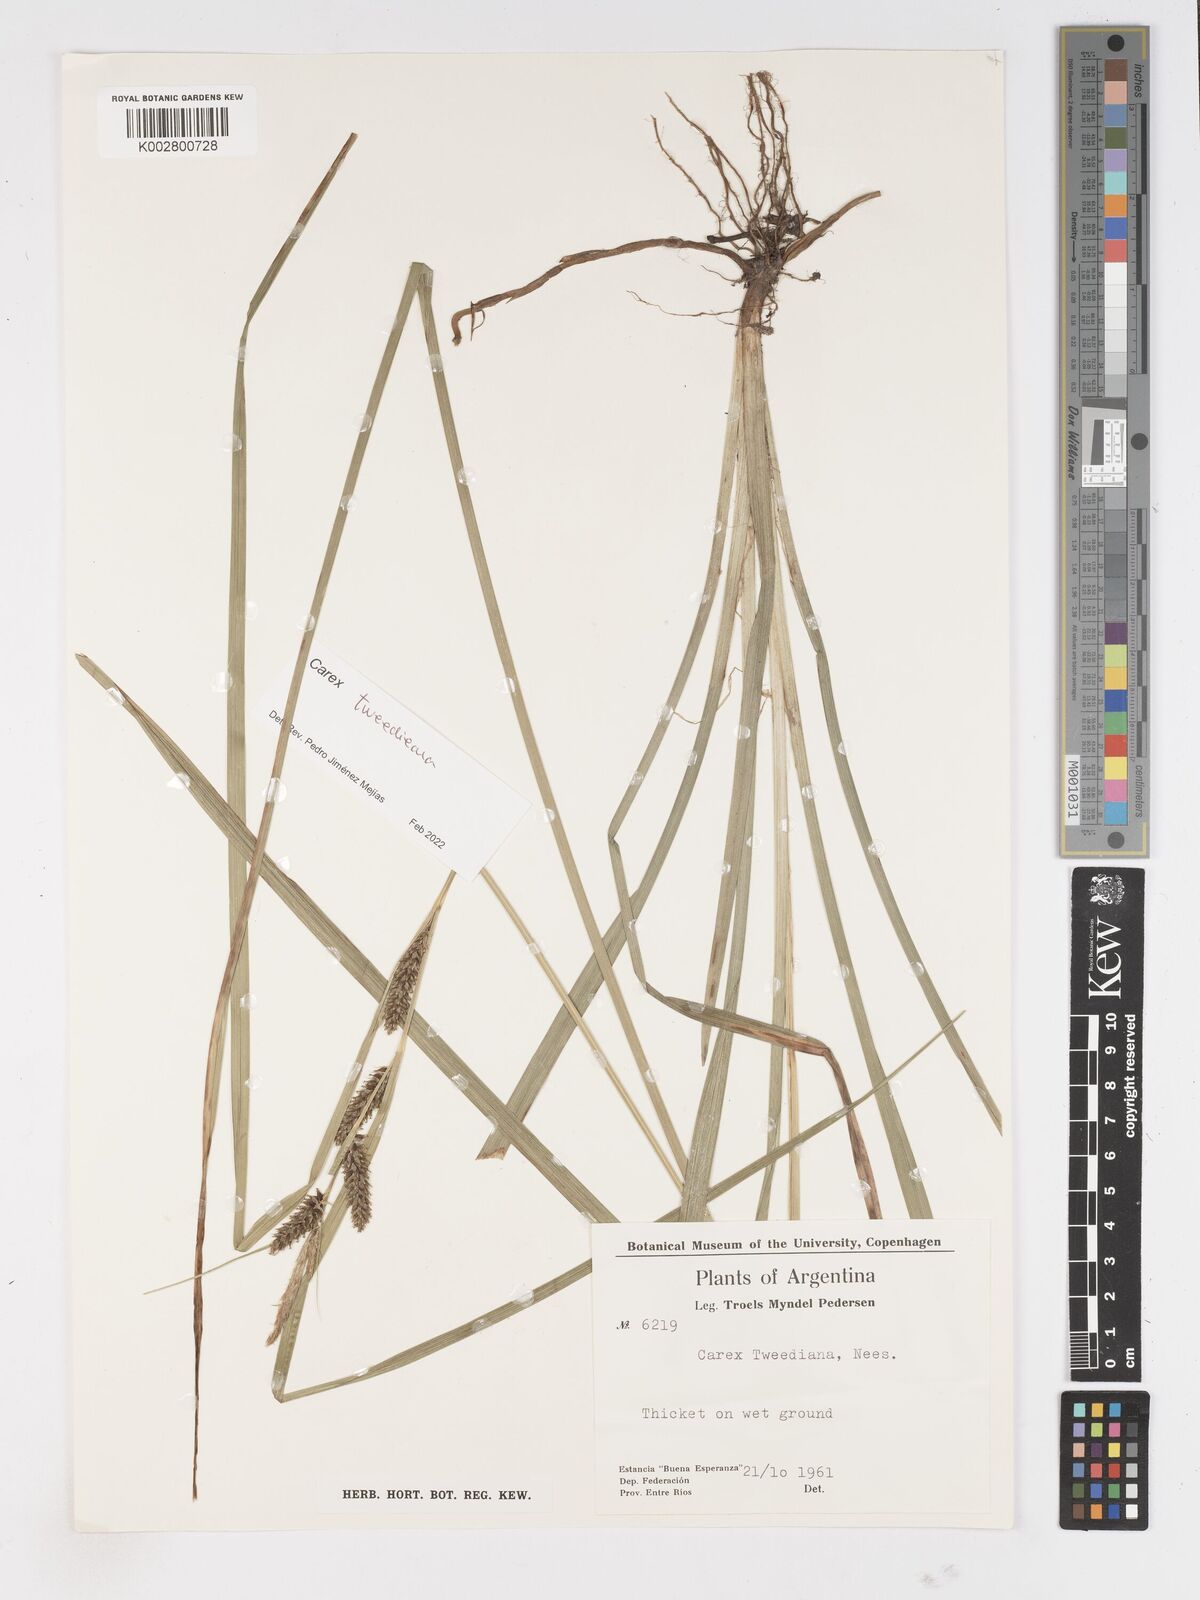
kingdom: Plantae
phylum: Tracheophyta
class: Liliopsida
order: Poales
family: Cyperaceae
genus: Carex
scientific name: Carex tweedieana
